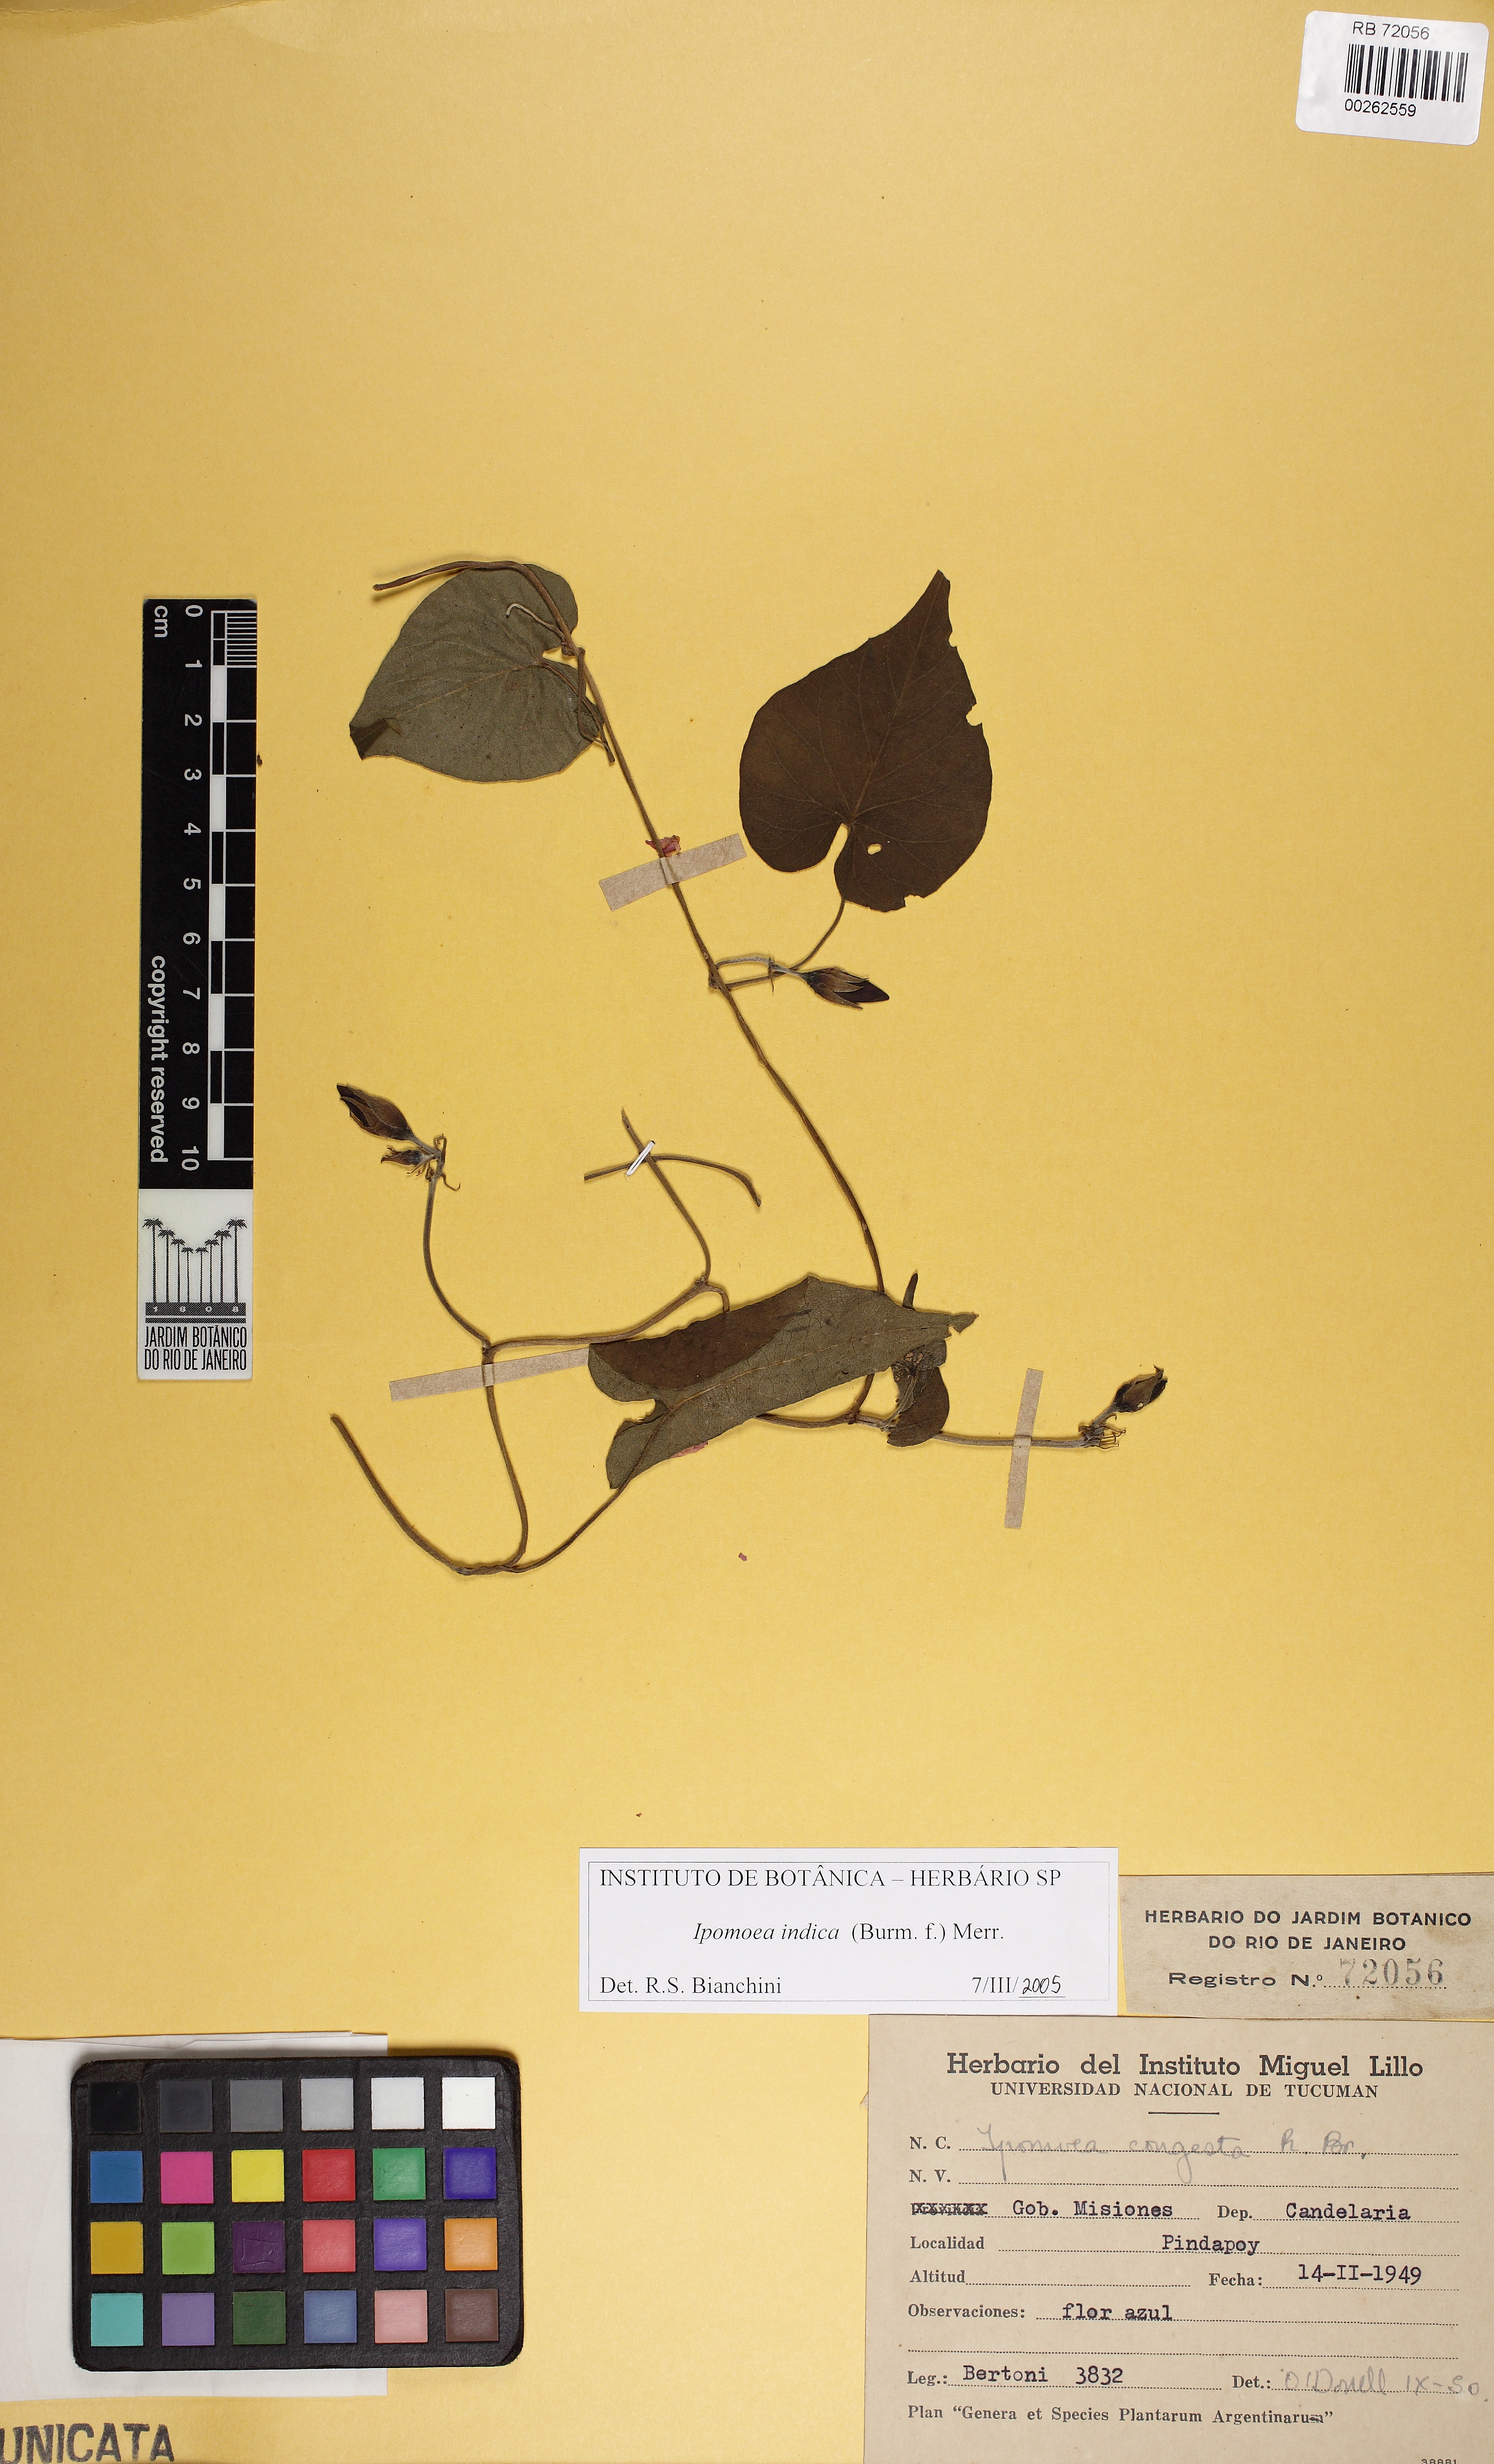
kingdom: Plantae
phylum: Tracheophyta
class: Magnoliopsida
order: Solanales
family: Convolvulaceae
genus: Ipomoea
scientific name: Ipomoea indica
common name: Blue dawnflower
